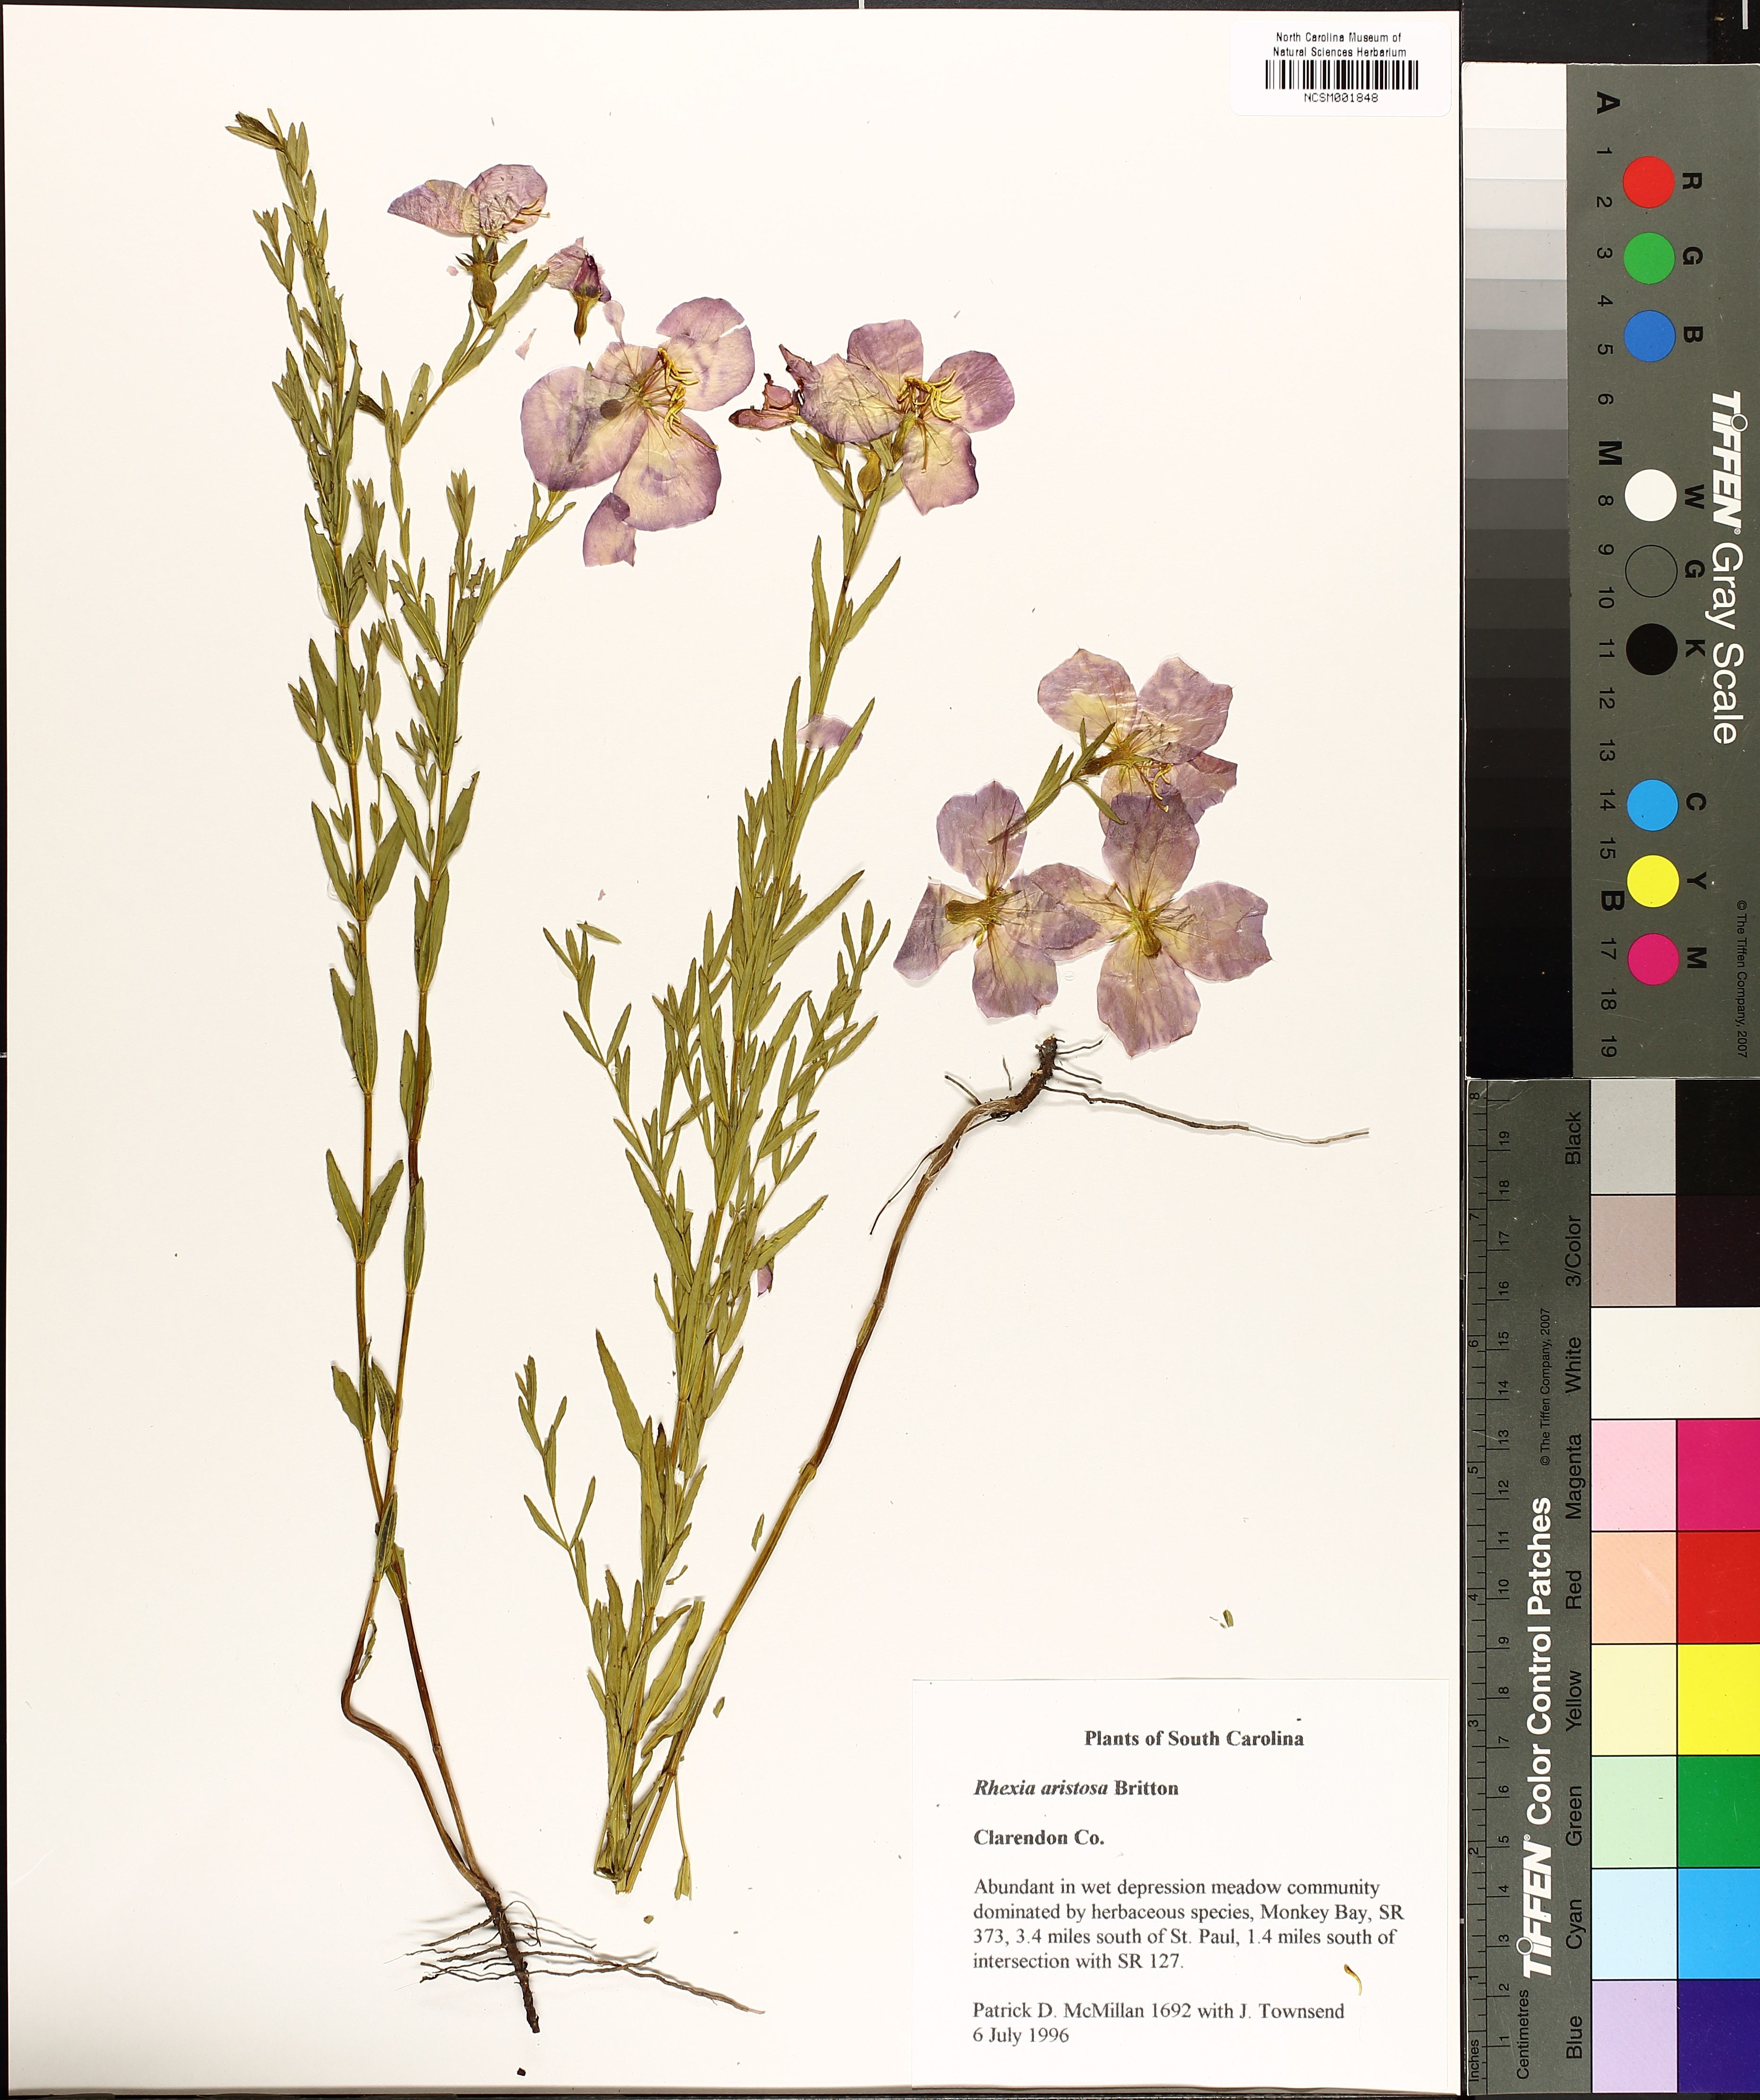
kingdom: Plantae
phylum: Tracheophyta
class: Magnoliopsida
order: Myrtales
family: Melastomataceae
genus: Rhexia
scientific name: Rhexia aristosa
